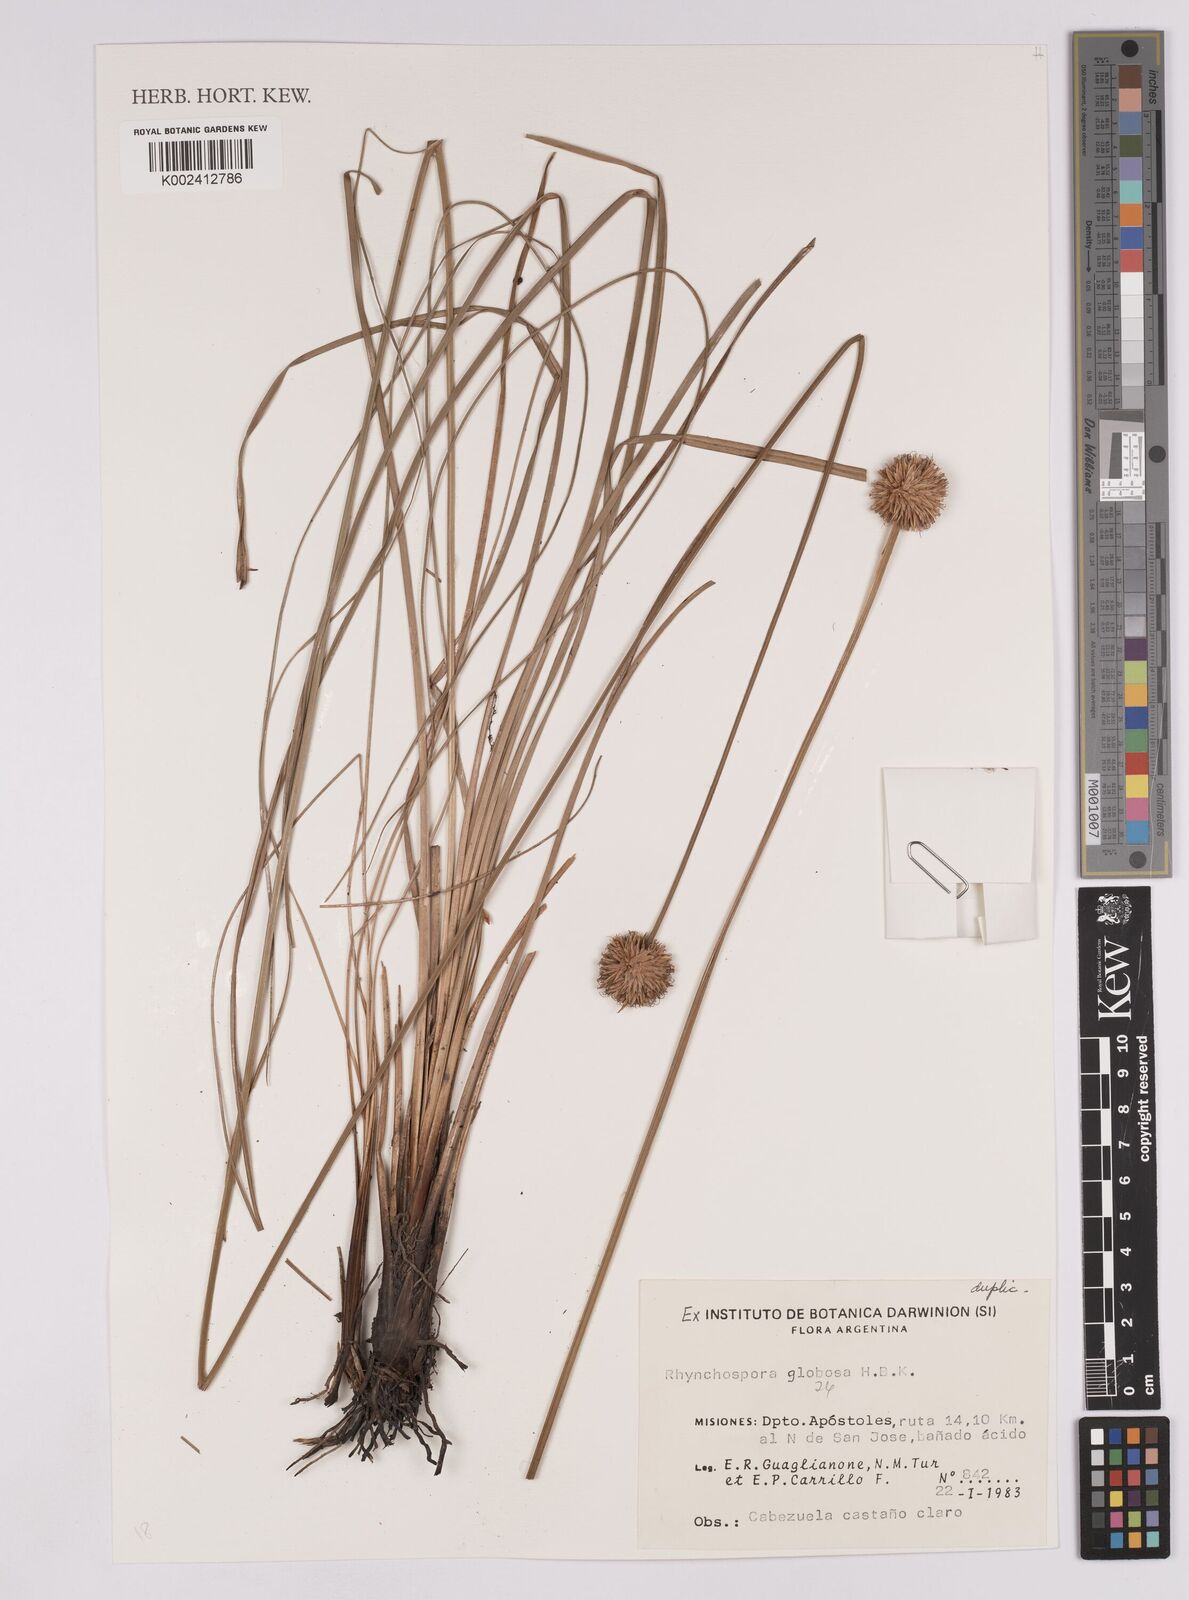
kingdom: Plantae
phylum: Tracheophyta
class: Liliopsida
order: Poales
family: Cyperaceae
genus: Rhynchospora
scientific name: Rhynchospora globosa
